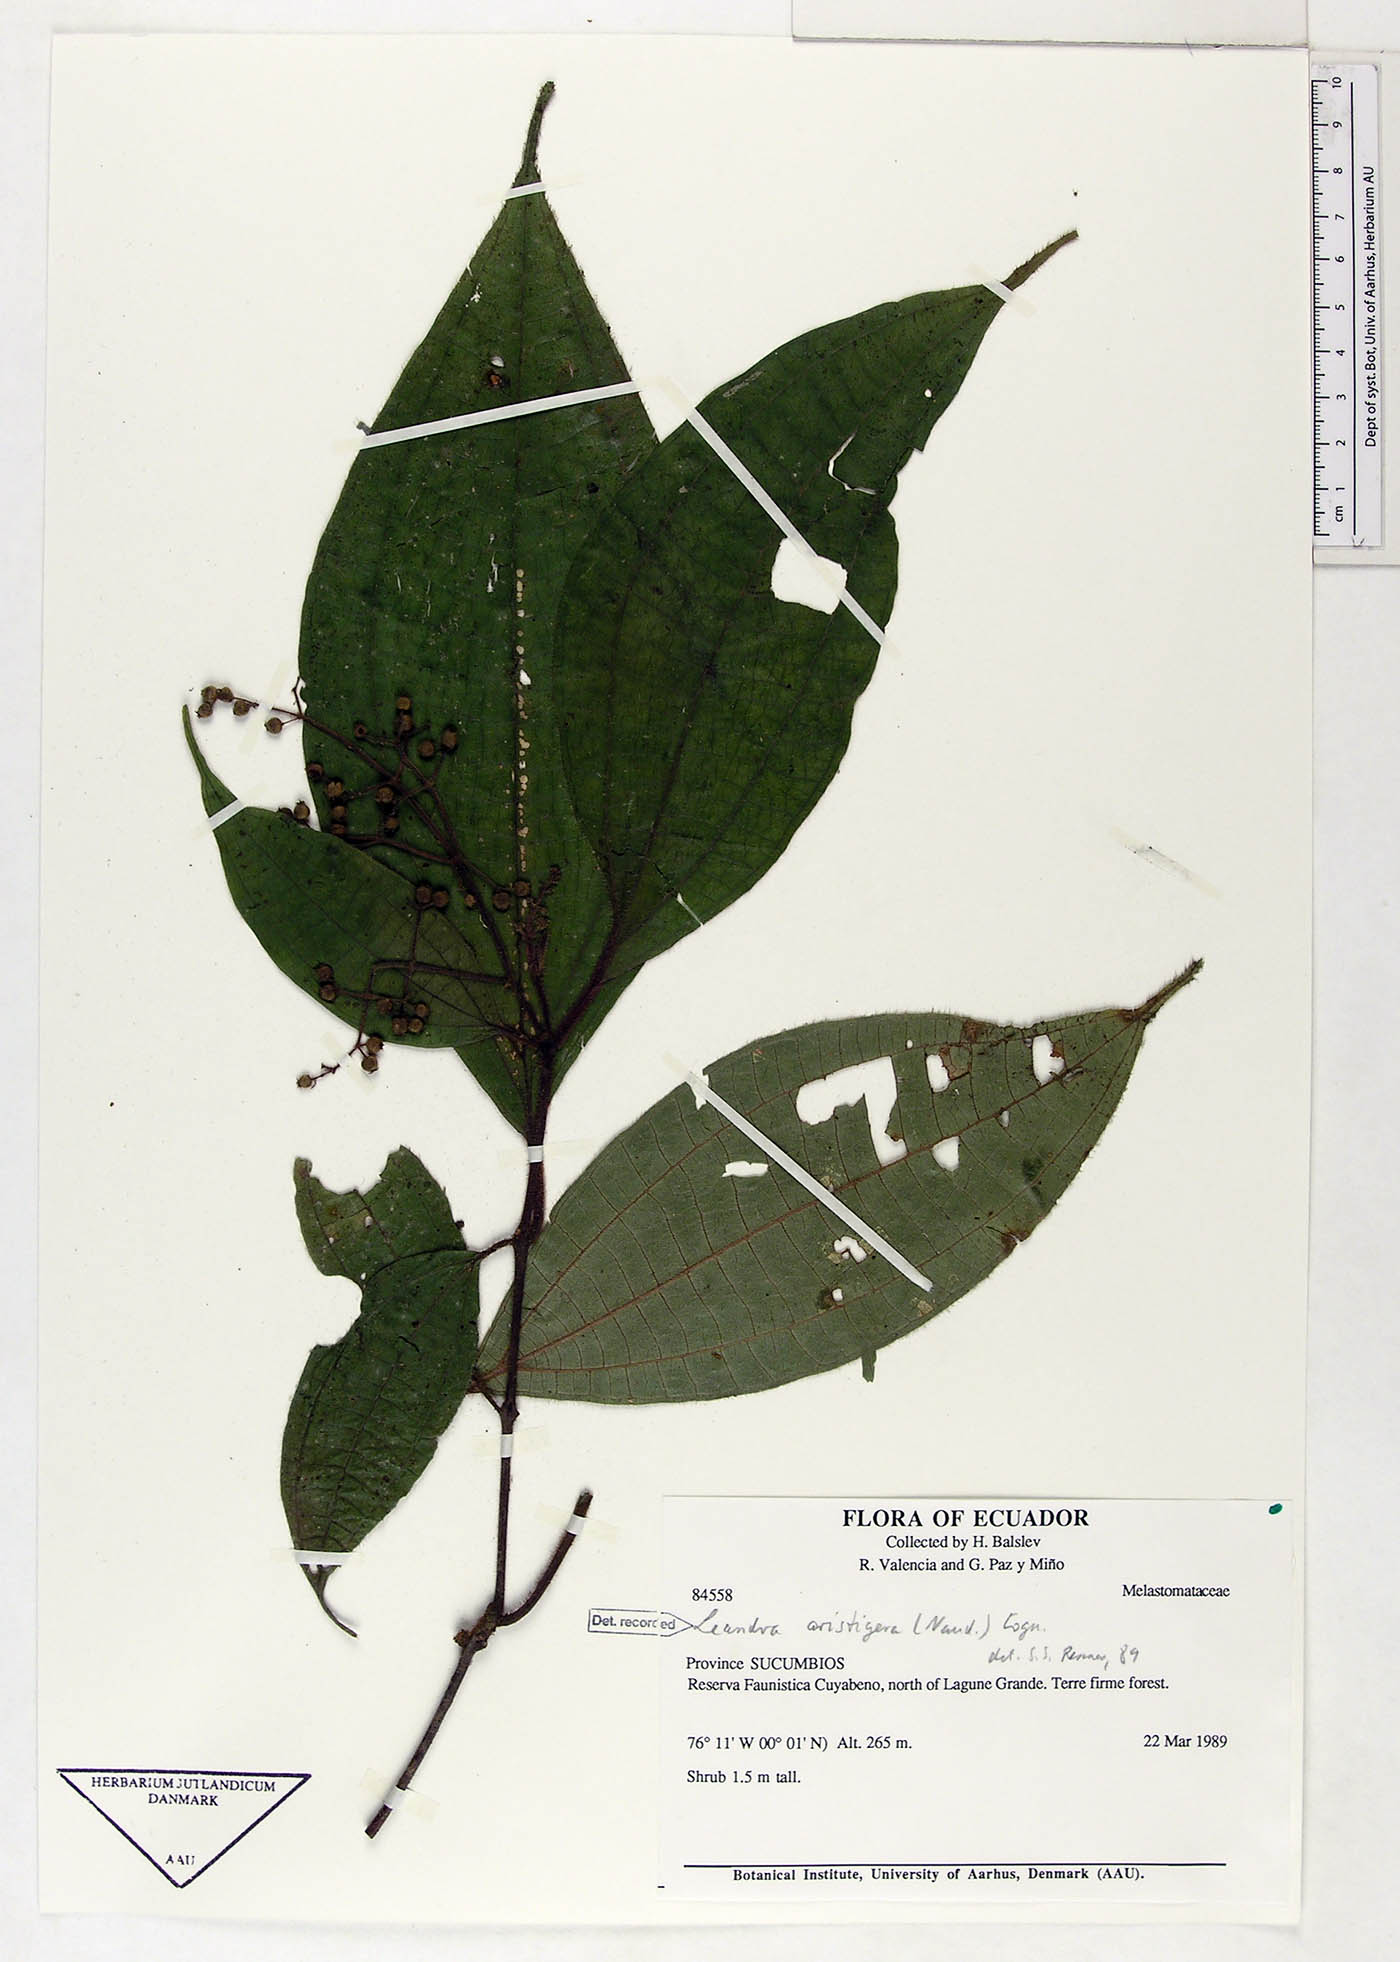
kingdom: Plantae
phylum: Tracheophyta
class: Magnoliopsida
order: Myrtales
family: Melastomataceae
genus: Miconia
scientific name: Miconia aristigera
